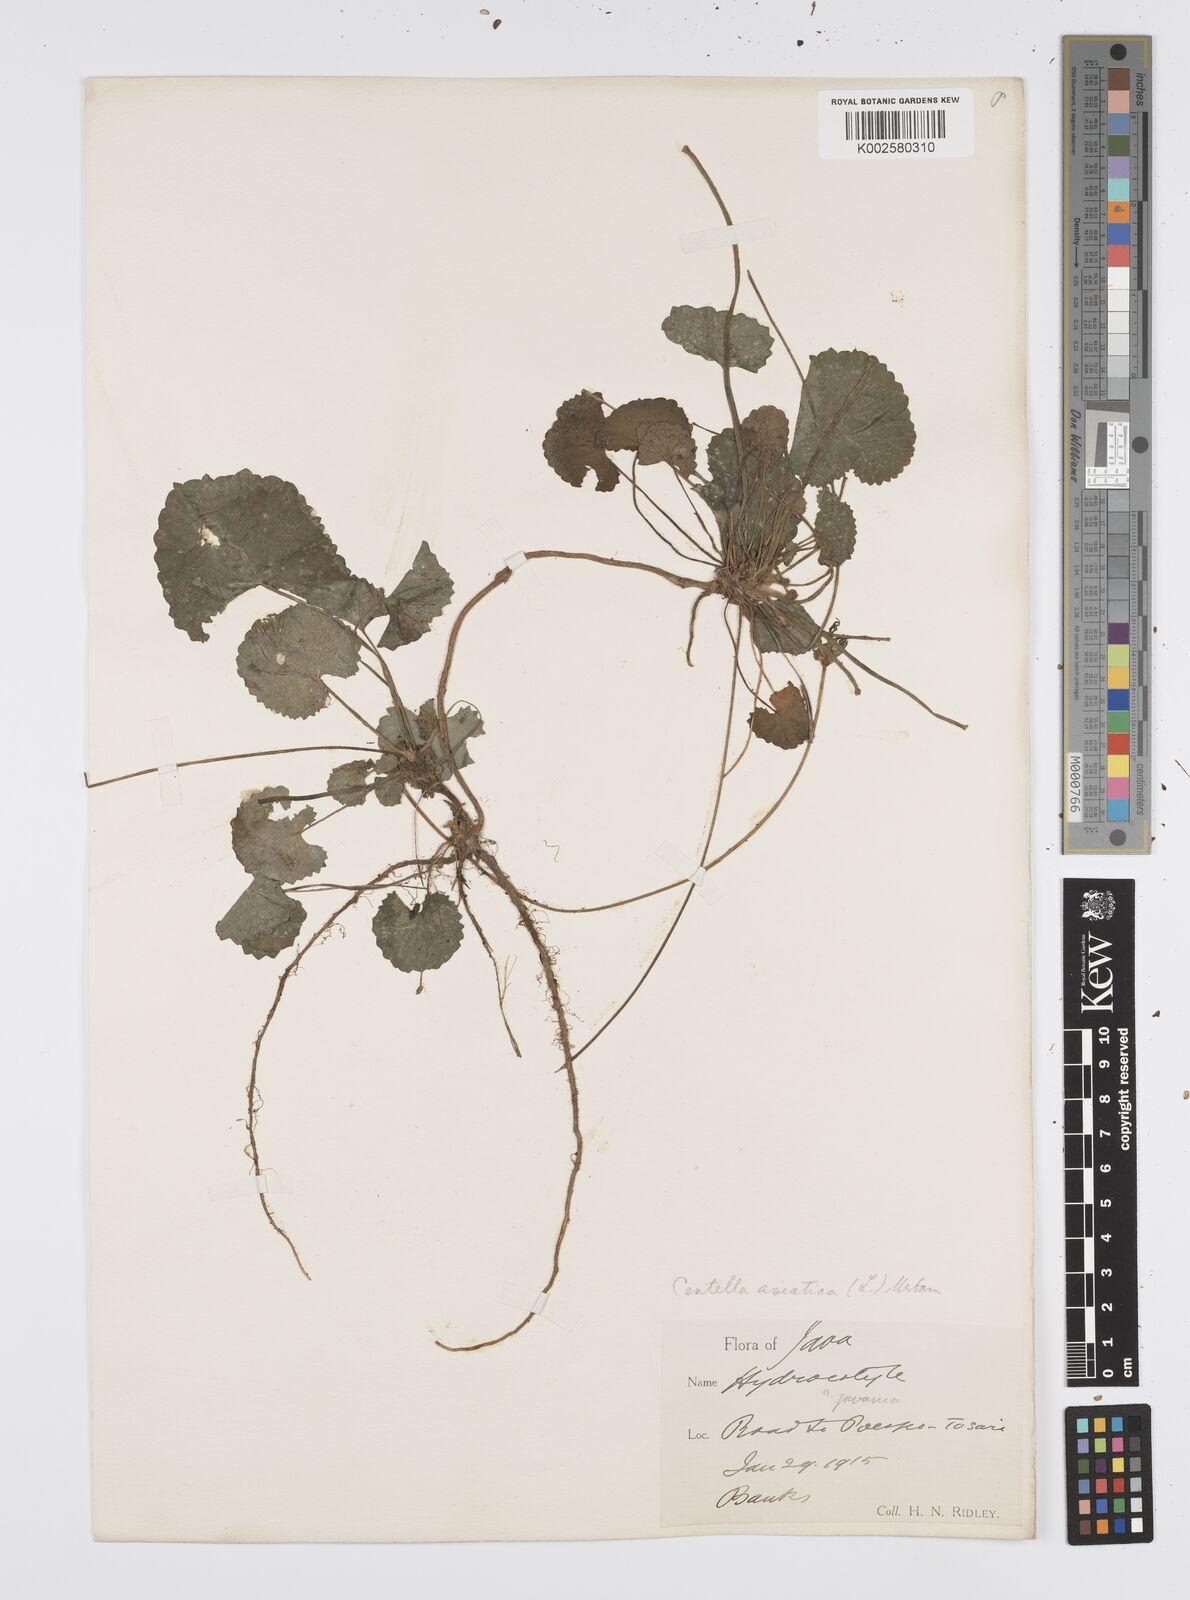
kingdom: Plantae
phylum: Tracheophyta
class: Magnoliopsida
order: Apiales
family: Apiaceae
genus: Centella
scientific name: Centella asiatica
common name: Spadeleaf
